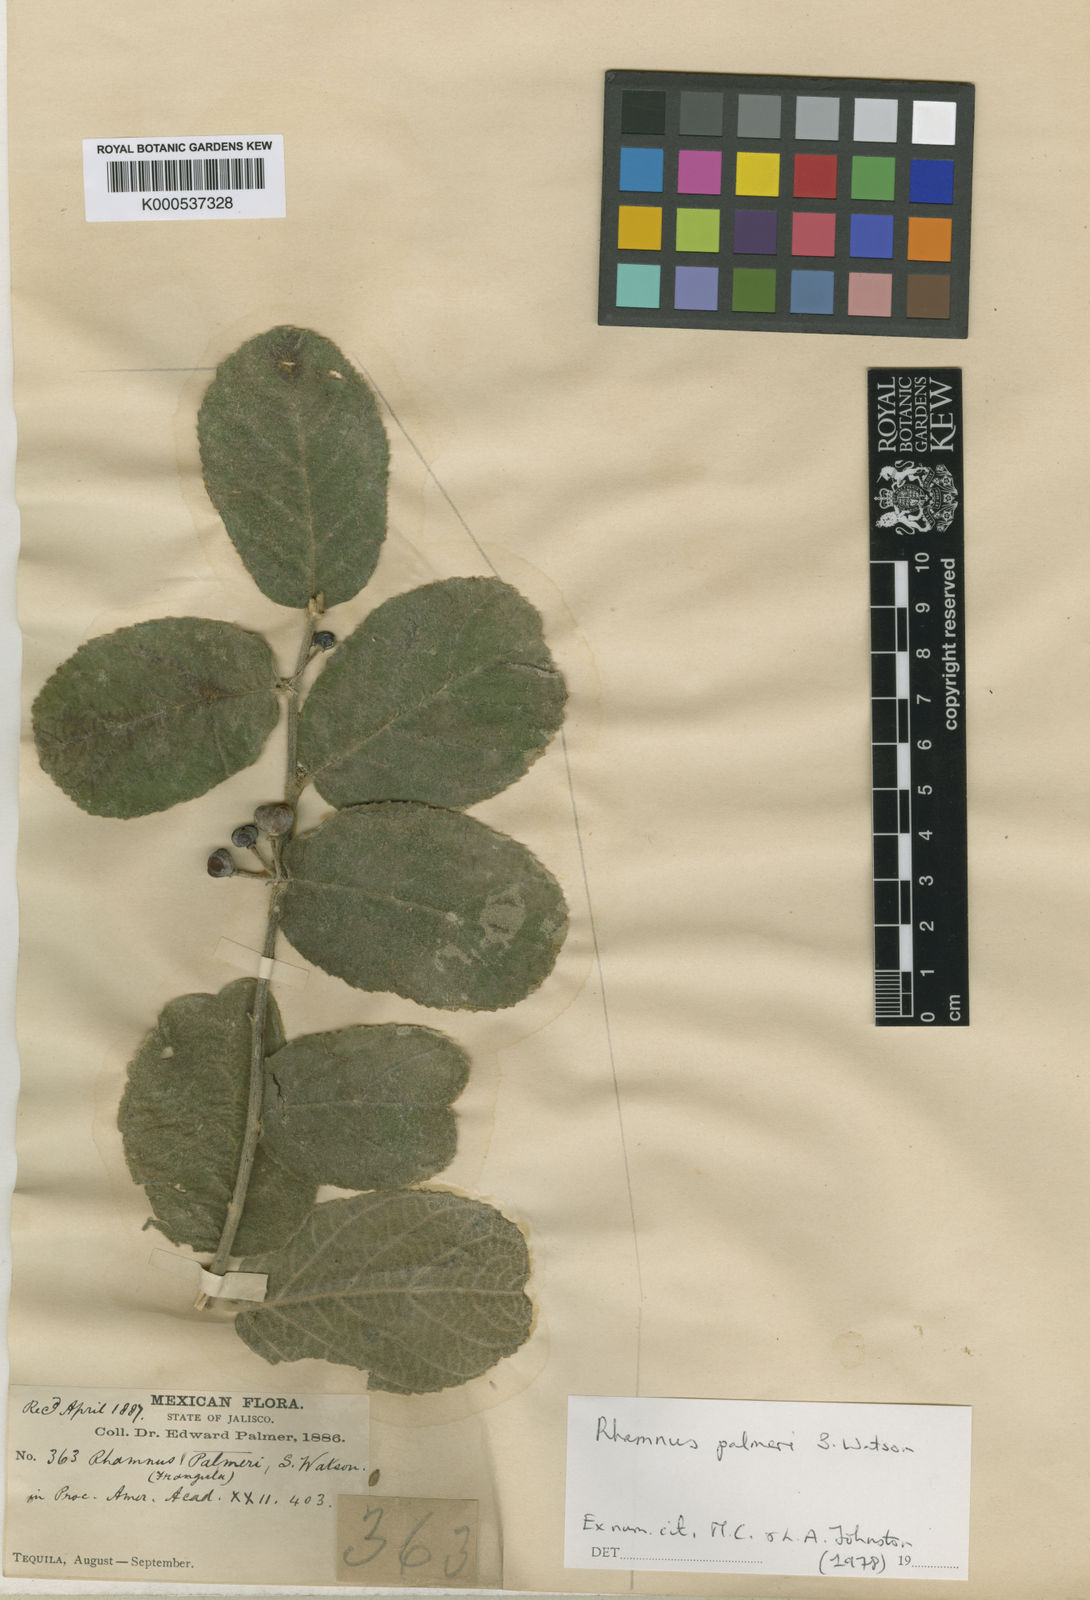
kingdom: Plantae
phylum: Tracheophyta
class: Magnoliopsida
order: Rosales
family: Rhamnaceae
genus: Frangula
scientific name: Frangula palmeri
